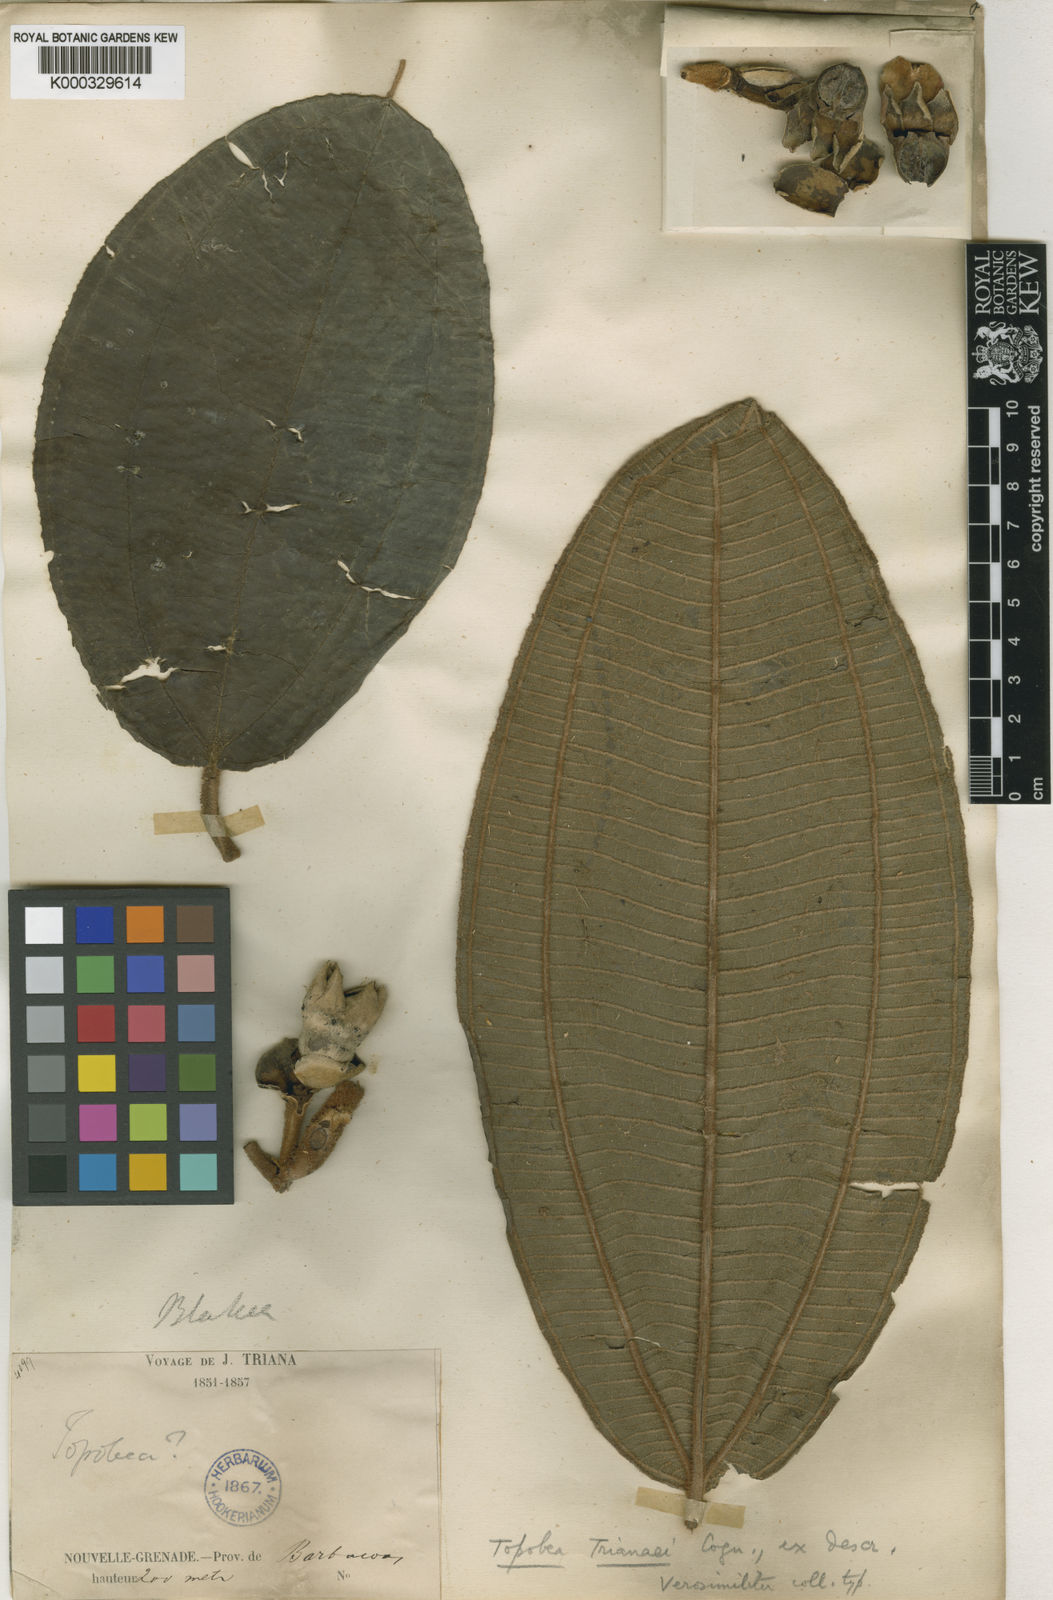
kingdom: Plantae
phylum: Tracheophyta
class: Magnoliopsida
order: Myrtales
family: Melastomataceae
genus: Blakea
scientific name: Blakea
